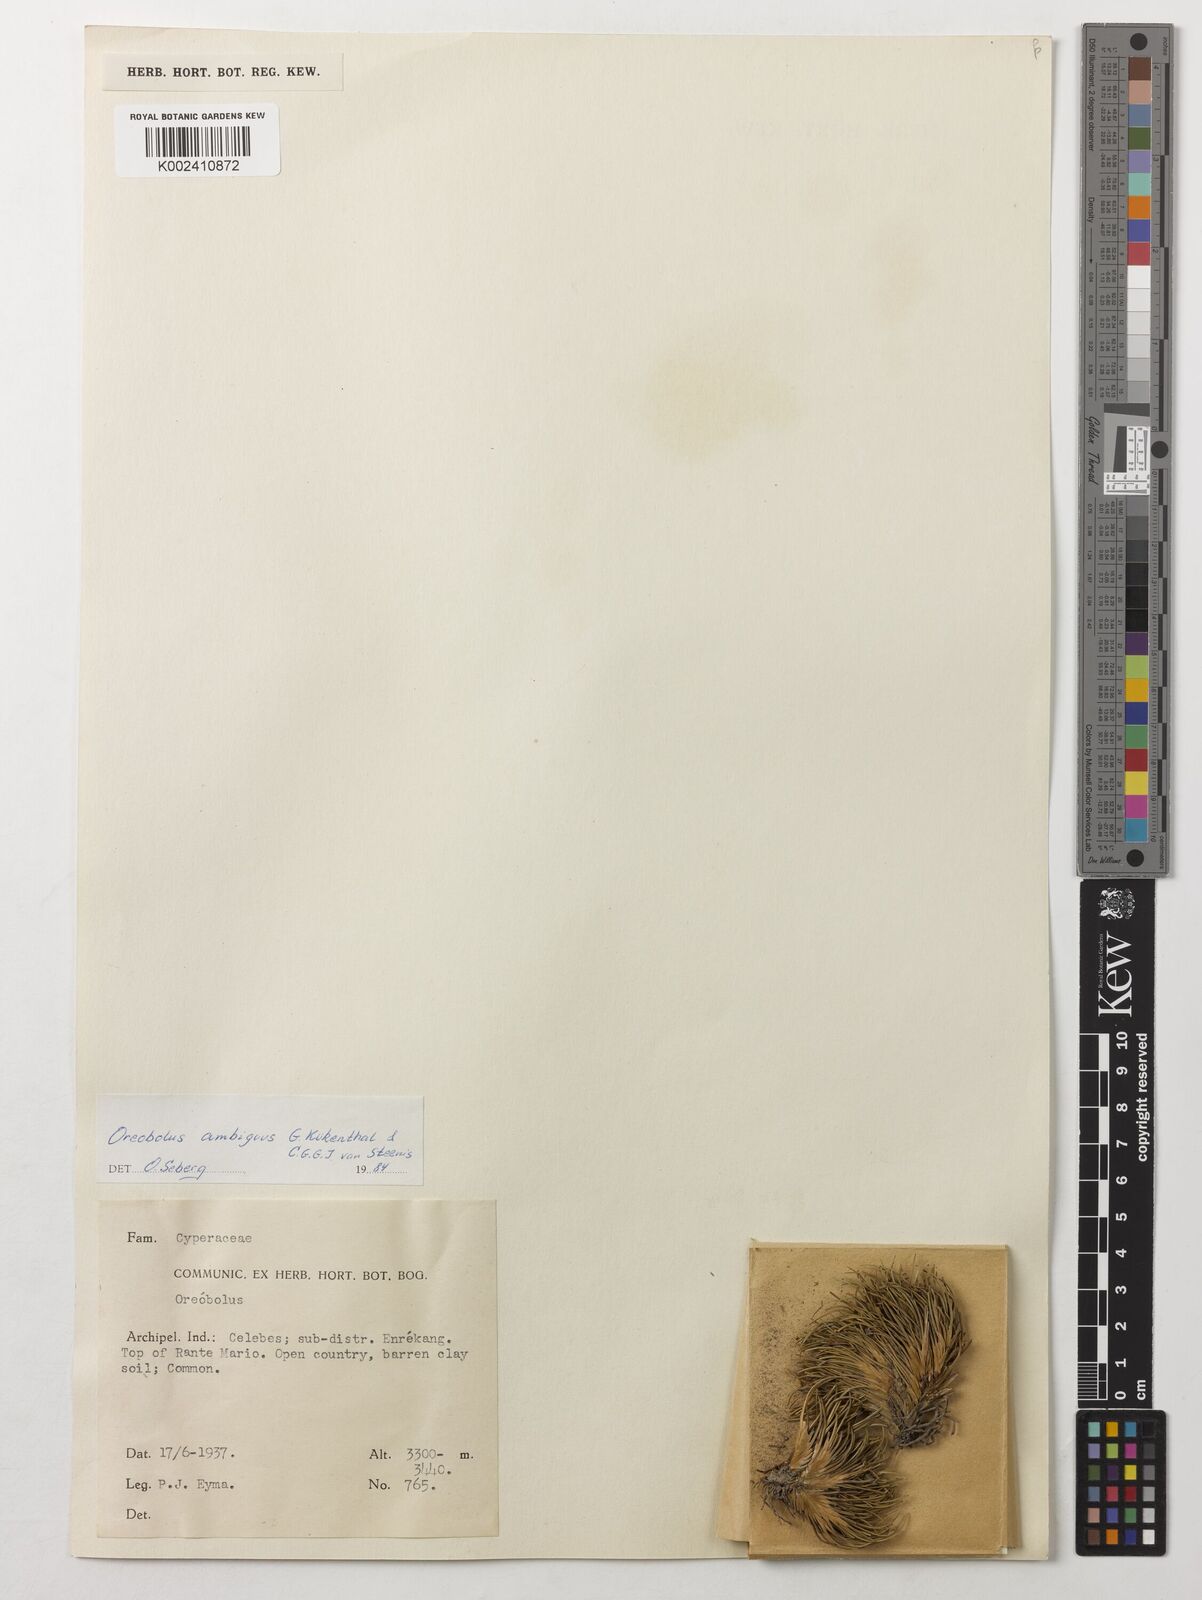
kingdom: Plantae
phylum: Tracheophyta
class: Liliopsida
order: Poales
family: Cyperaceae
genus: Oreobolus
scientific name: Oreobolus ambiguus
